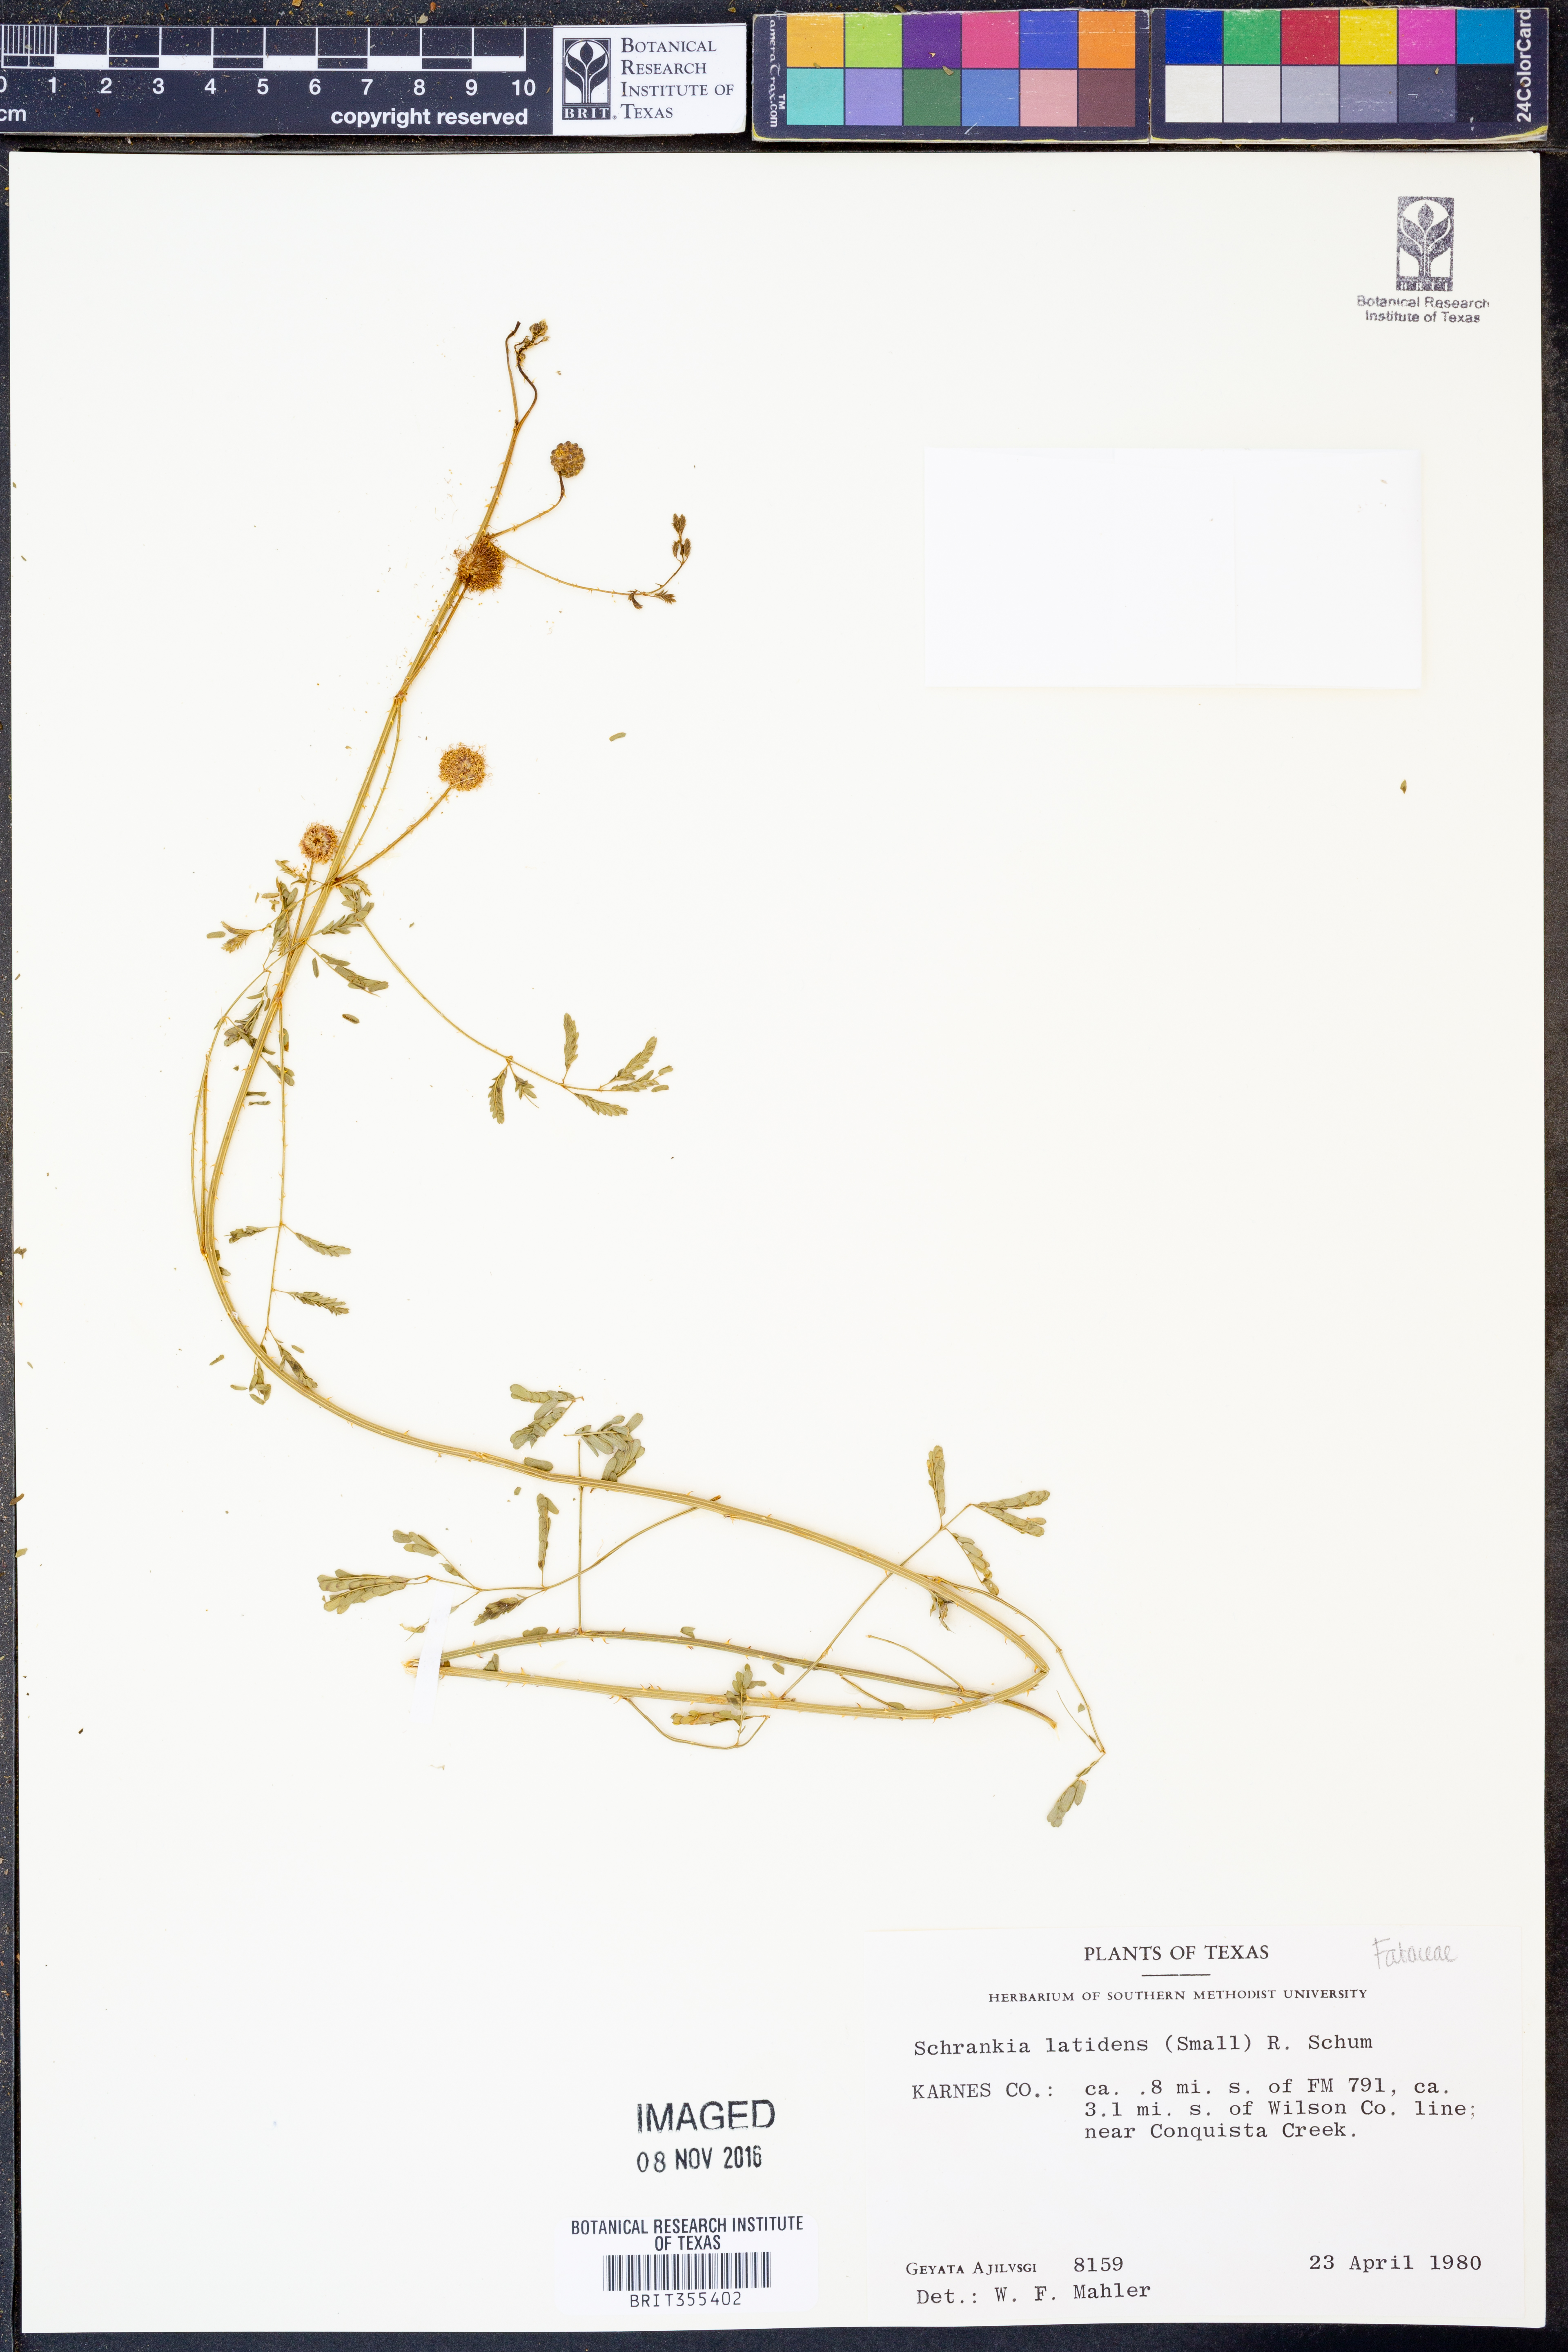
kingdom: Plantae
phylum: Tracheophyta
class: Magnoliopsida
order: Fabales
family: Fabaceae
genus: Mimosa
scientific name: Mimosa quadrivalvis
